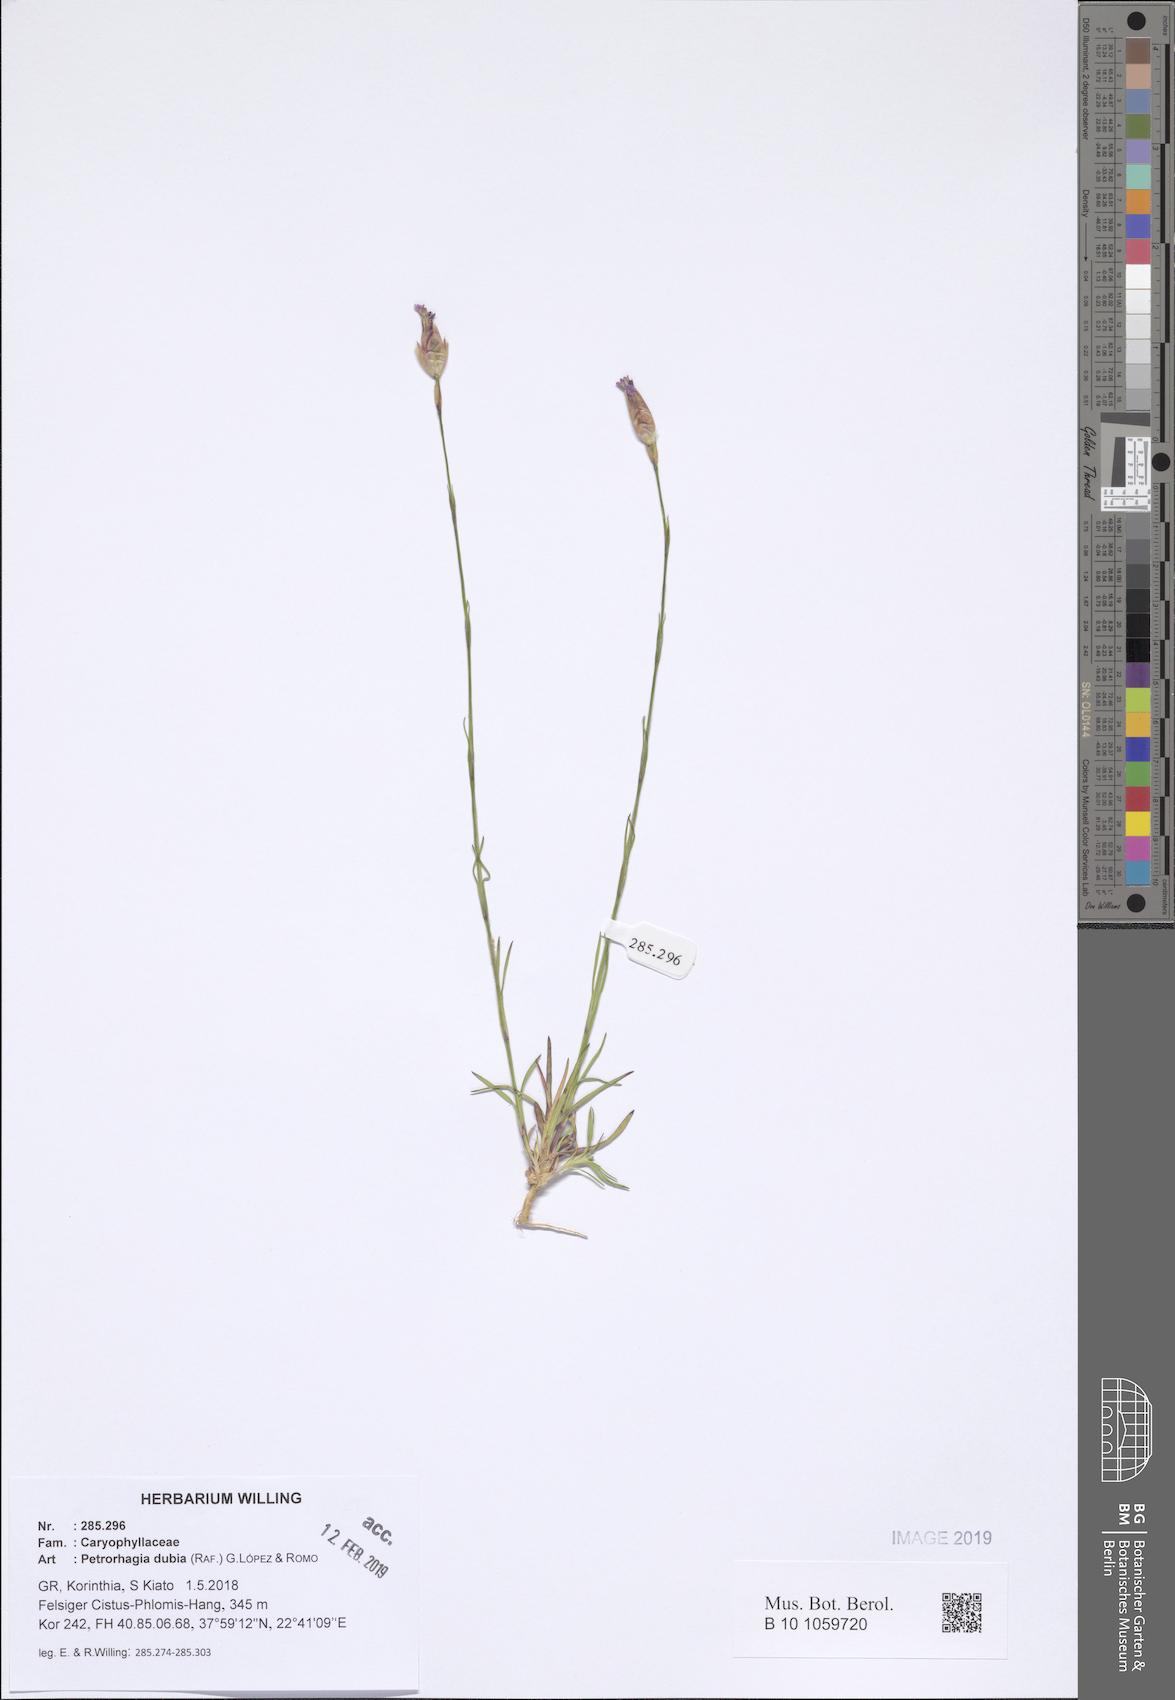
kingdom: Plantae
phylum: Tracheophyta
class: Magnoliopsida
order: Caryophyllales
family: Caryophyllaceae
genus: Petrorhagia
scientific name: Petrorhagia dubia
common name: Hairypink
